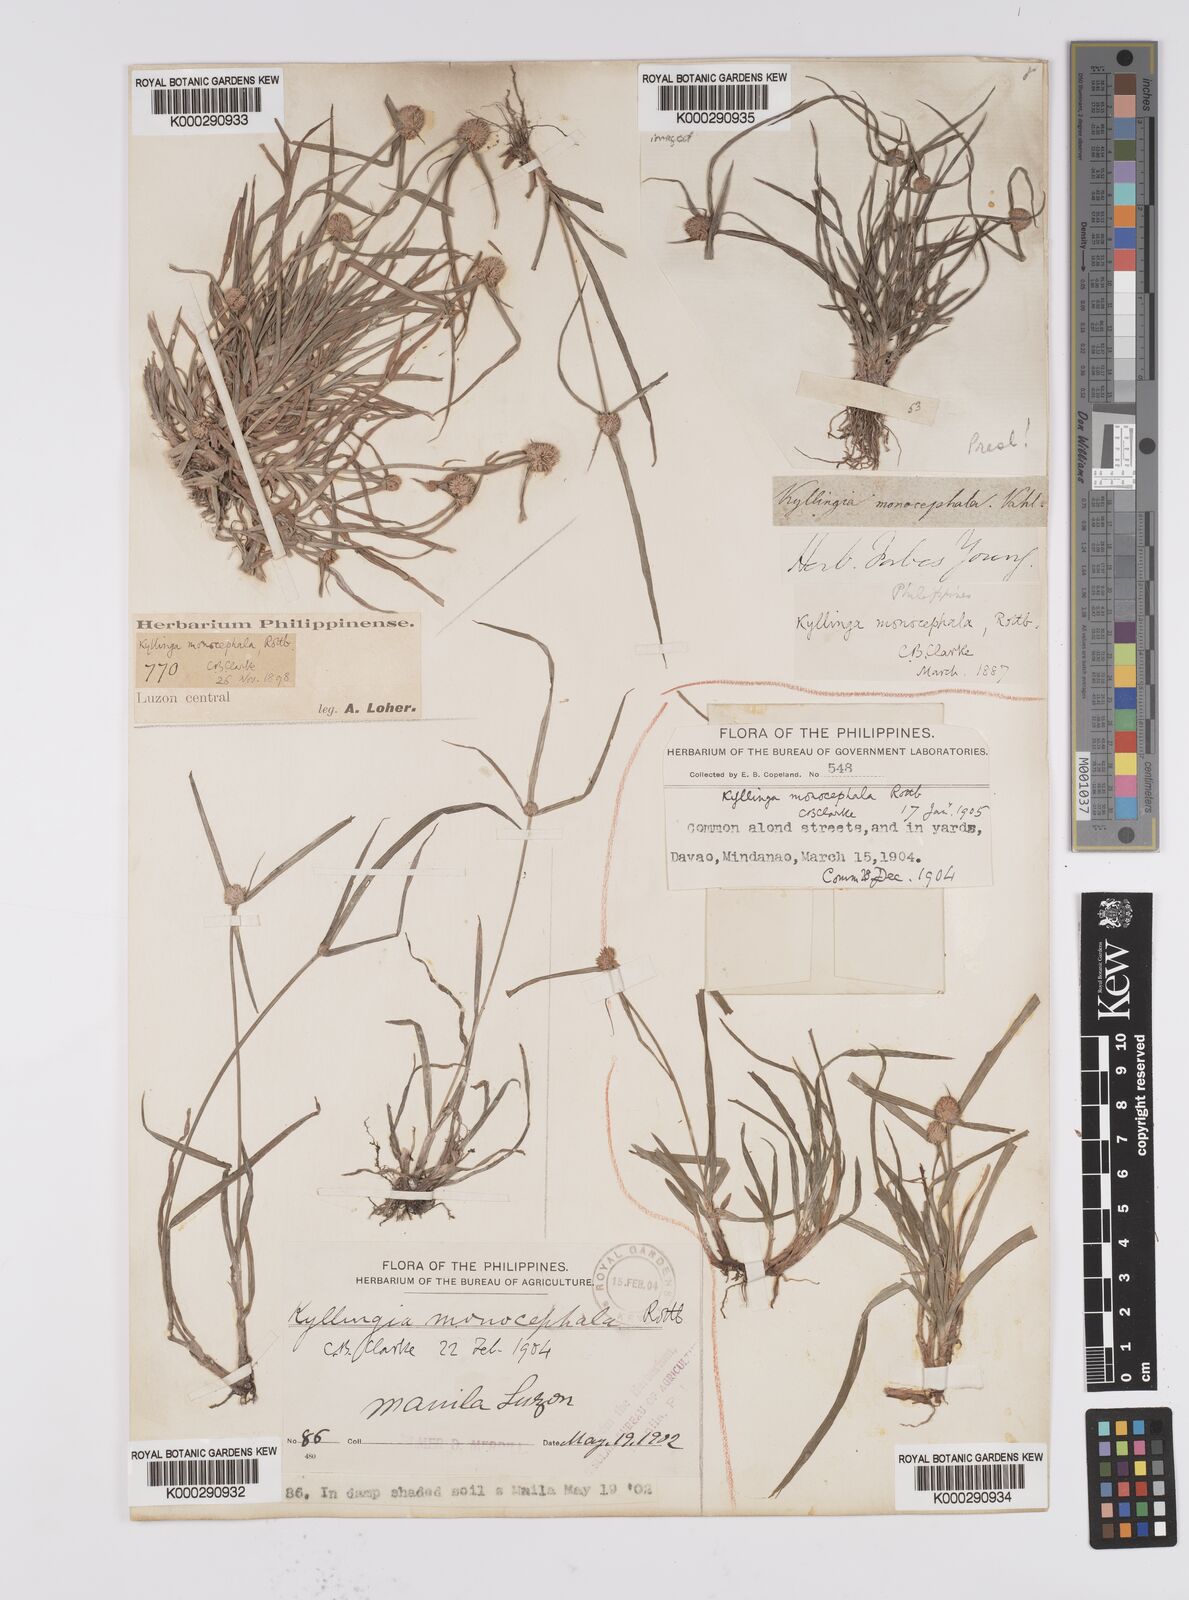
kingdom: Plantae
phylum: Tracheophyta
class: Liliopsida
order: Poales
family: Cyperaceae
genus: Cyperus
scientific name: Cyperus mindorensis
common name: Flatsedge
